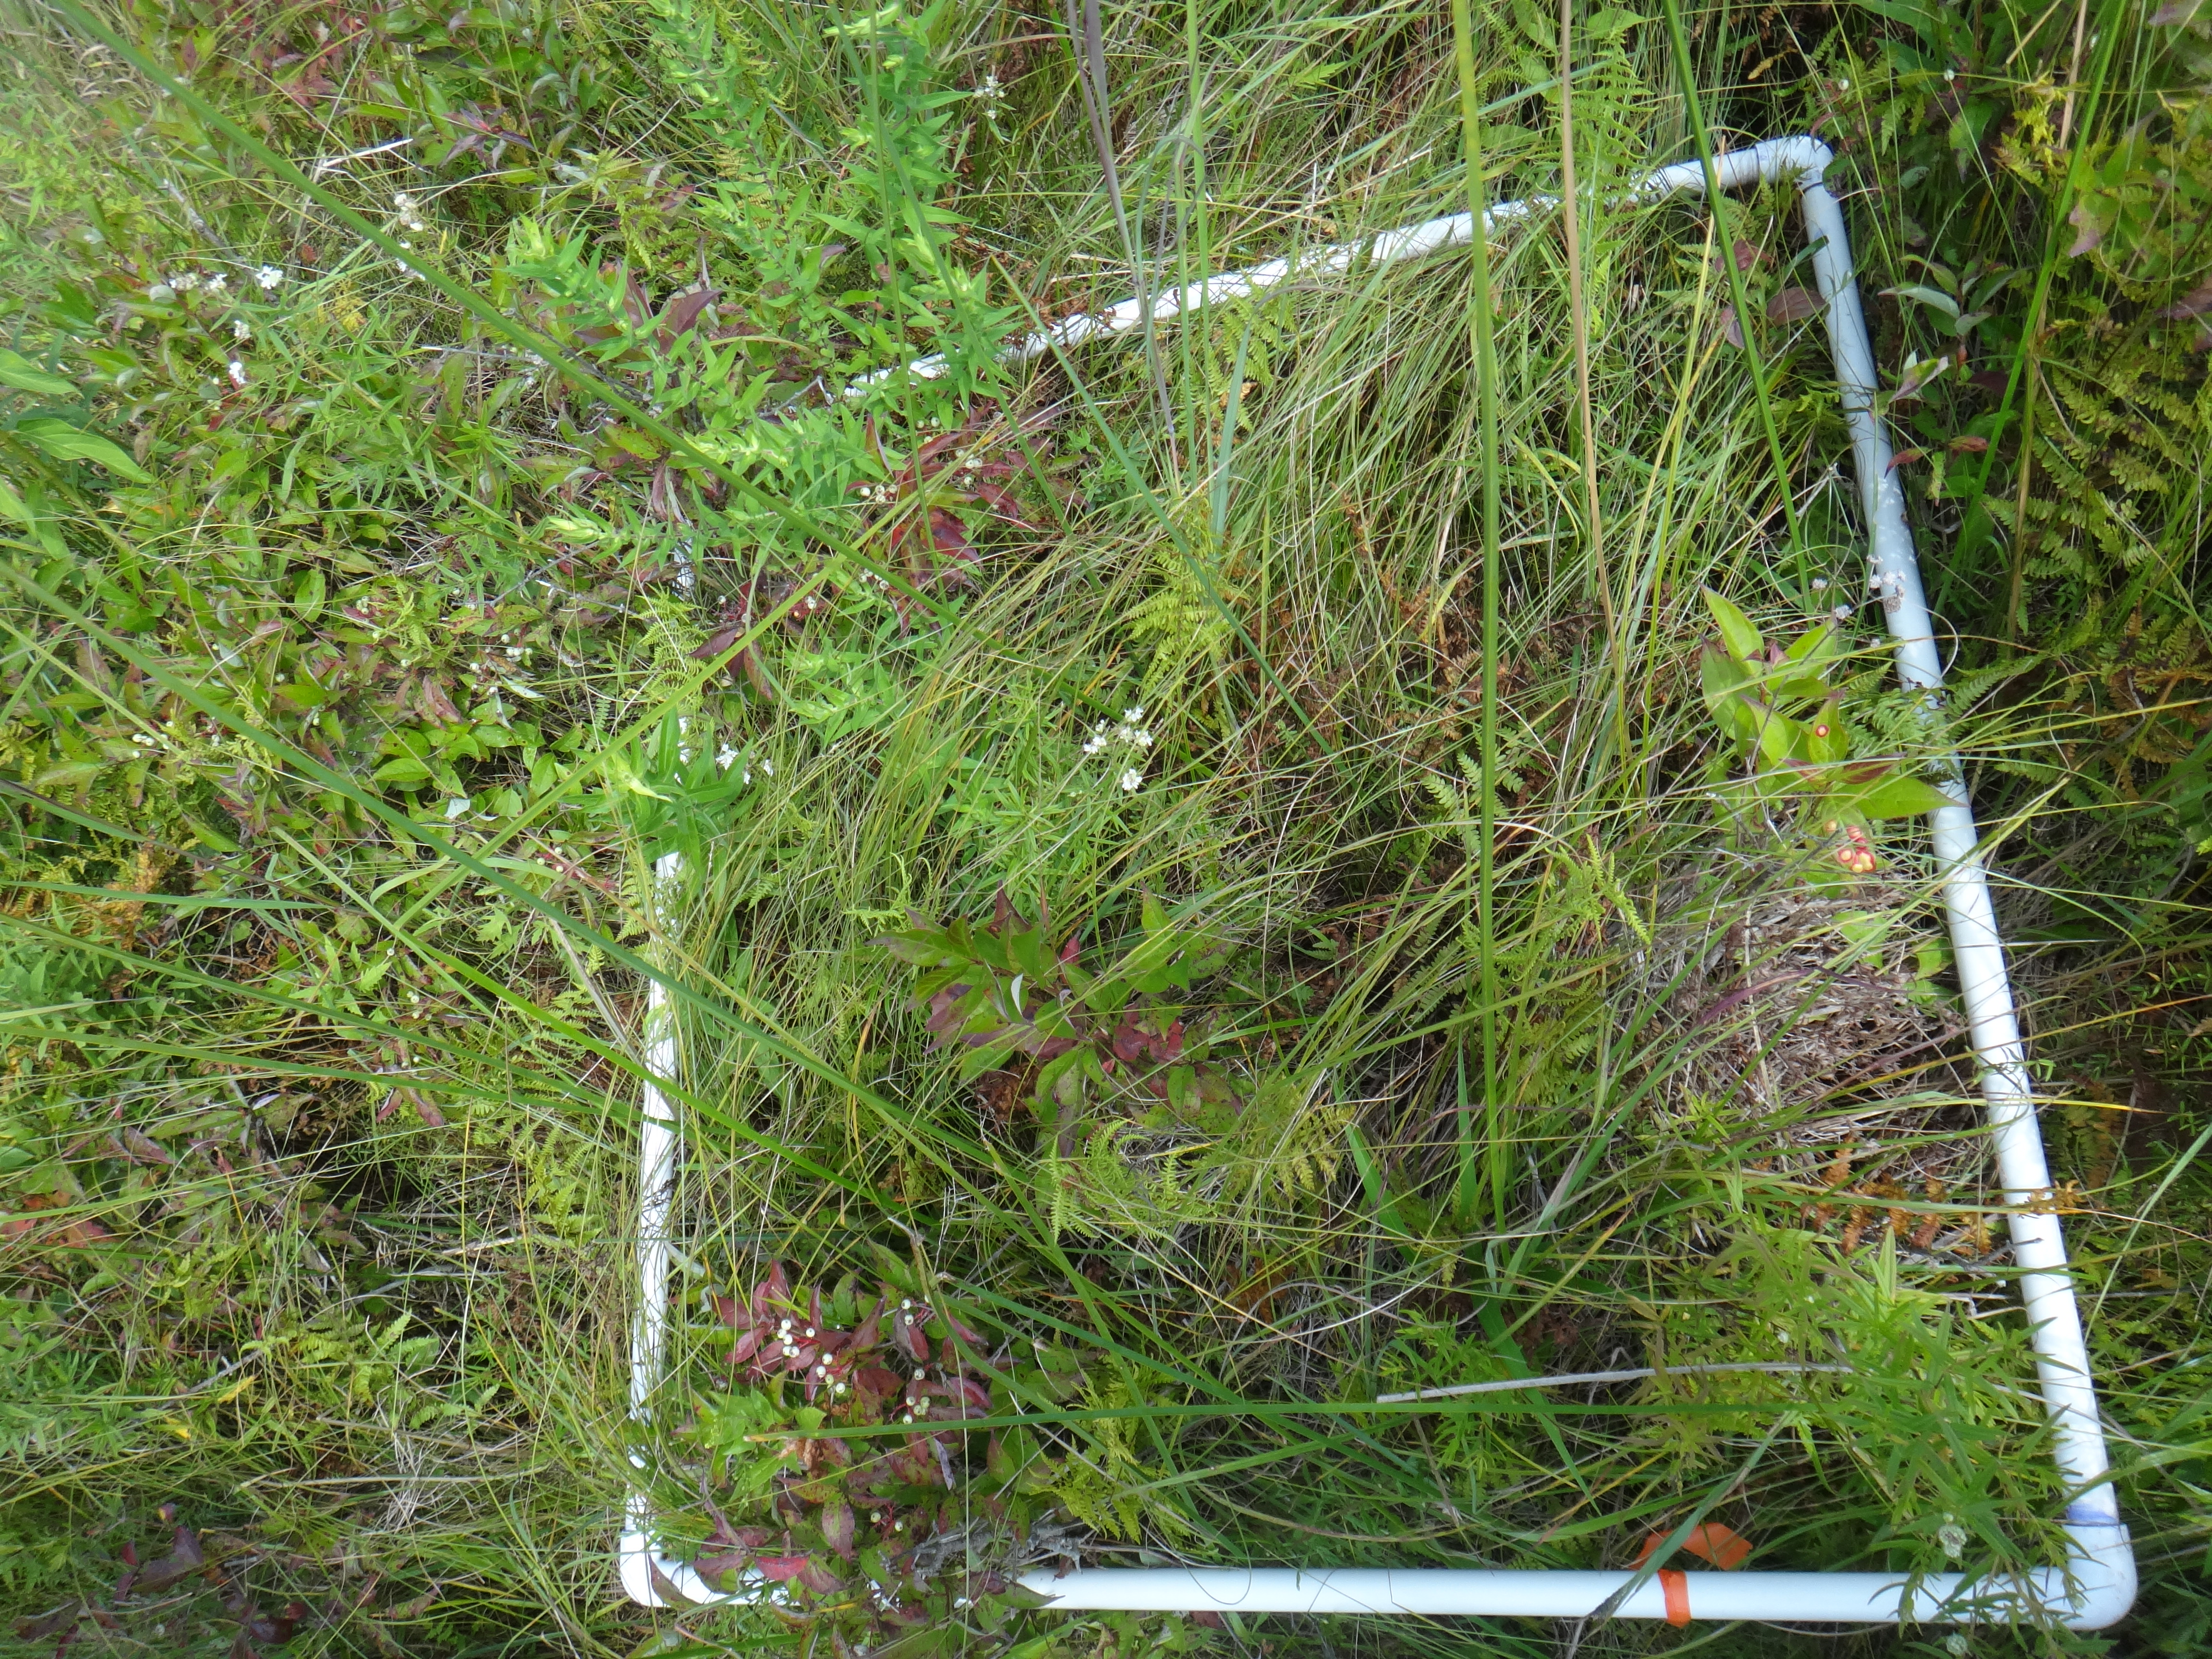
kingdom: Plantae
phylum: Tracheophyta
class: Liliopsida
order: Poales
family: Poaceae
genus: Andropogon
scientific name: Andropogon gerardi
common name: Big bluestem
